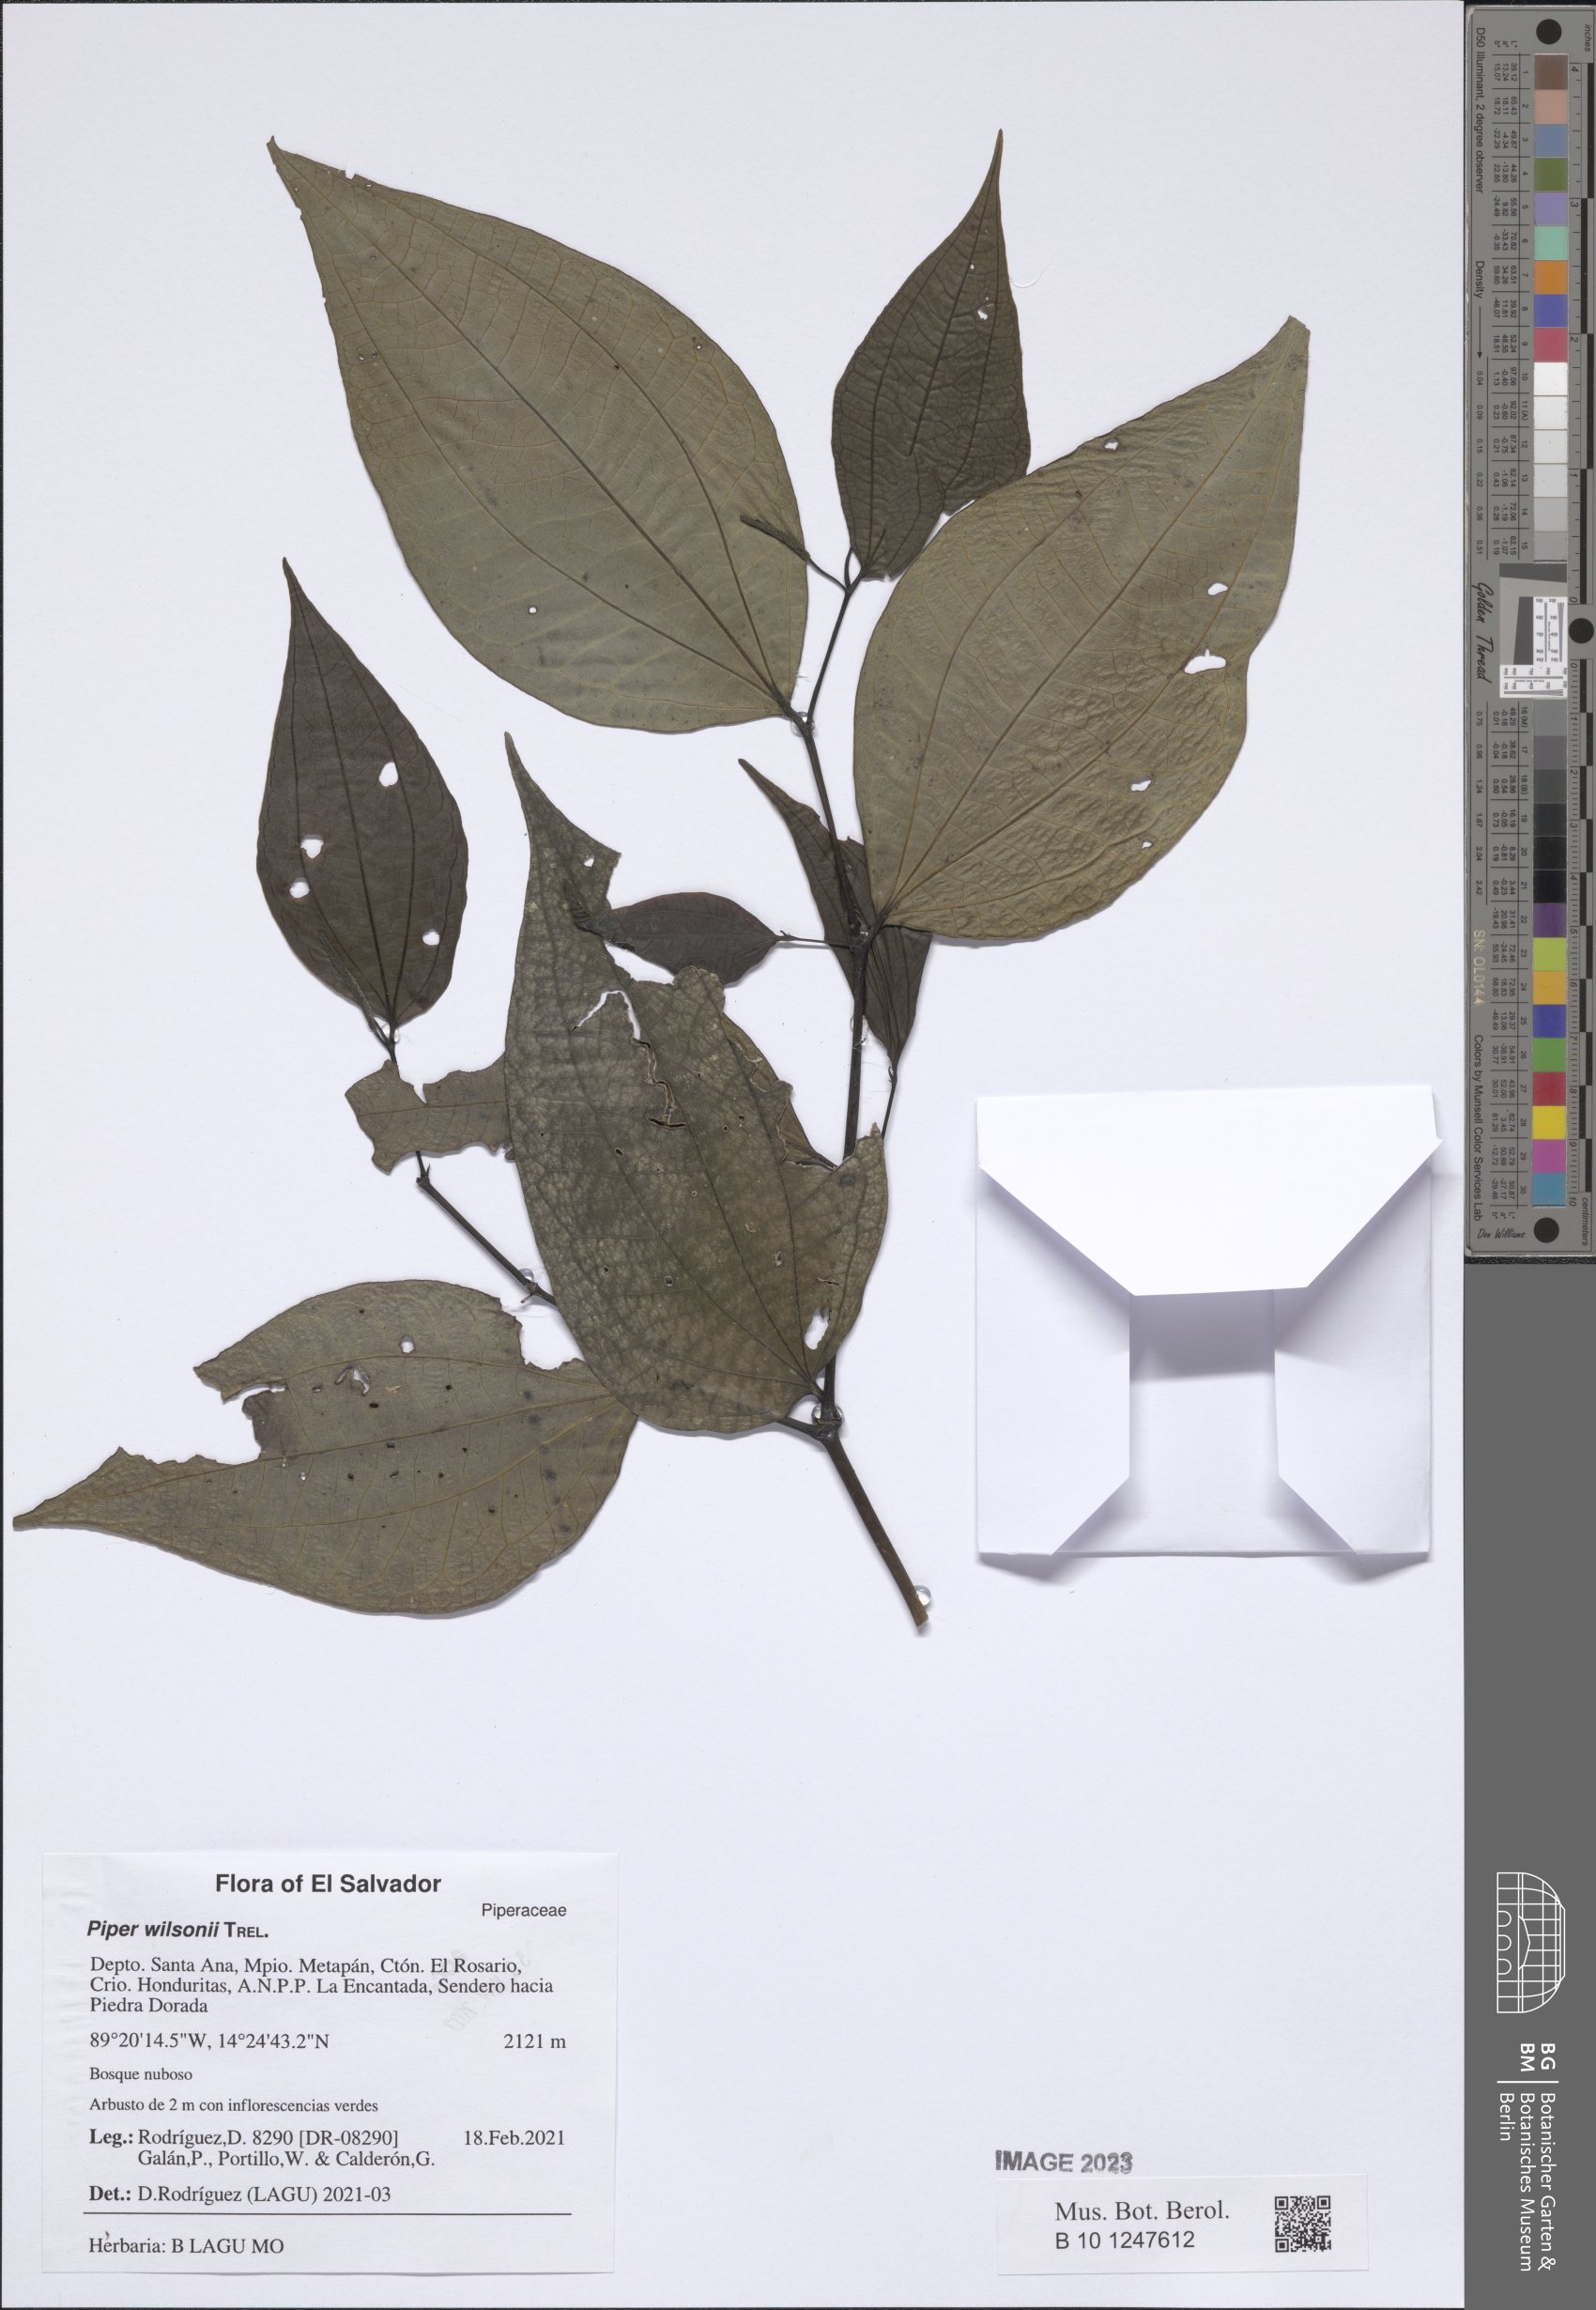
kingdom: Plantae
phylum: Tracheophyta
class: Magnoliopsida
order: Piperales
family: Piperaceae
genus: Piper
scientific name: Piper wilsonii
